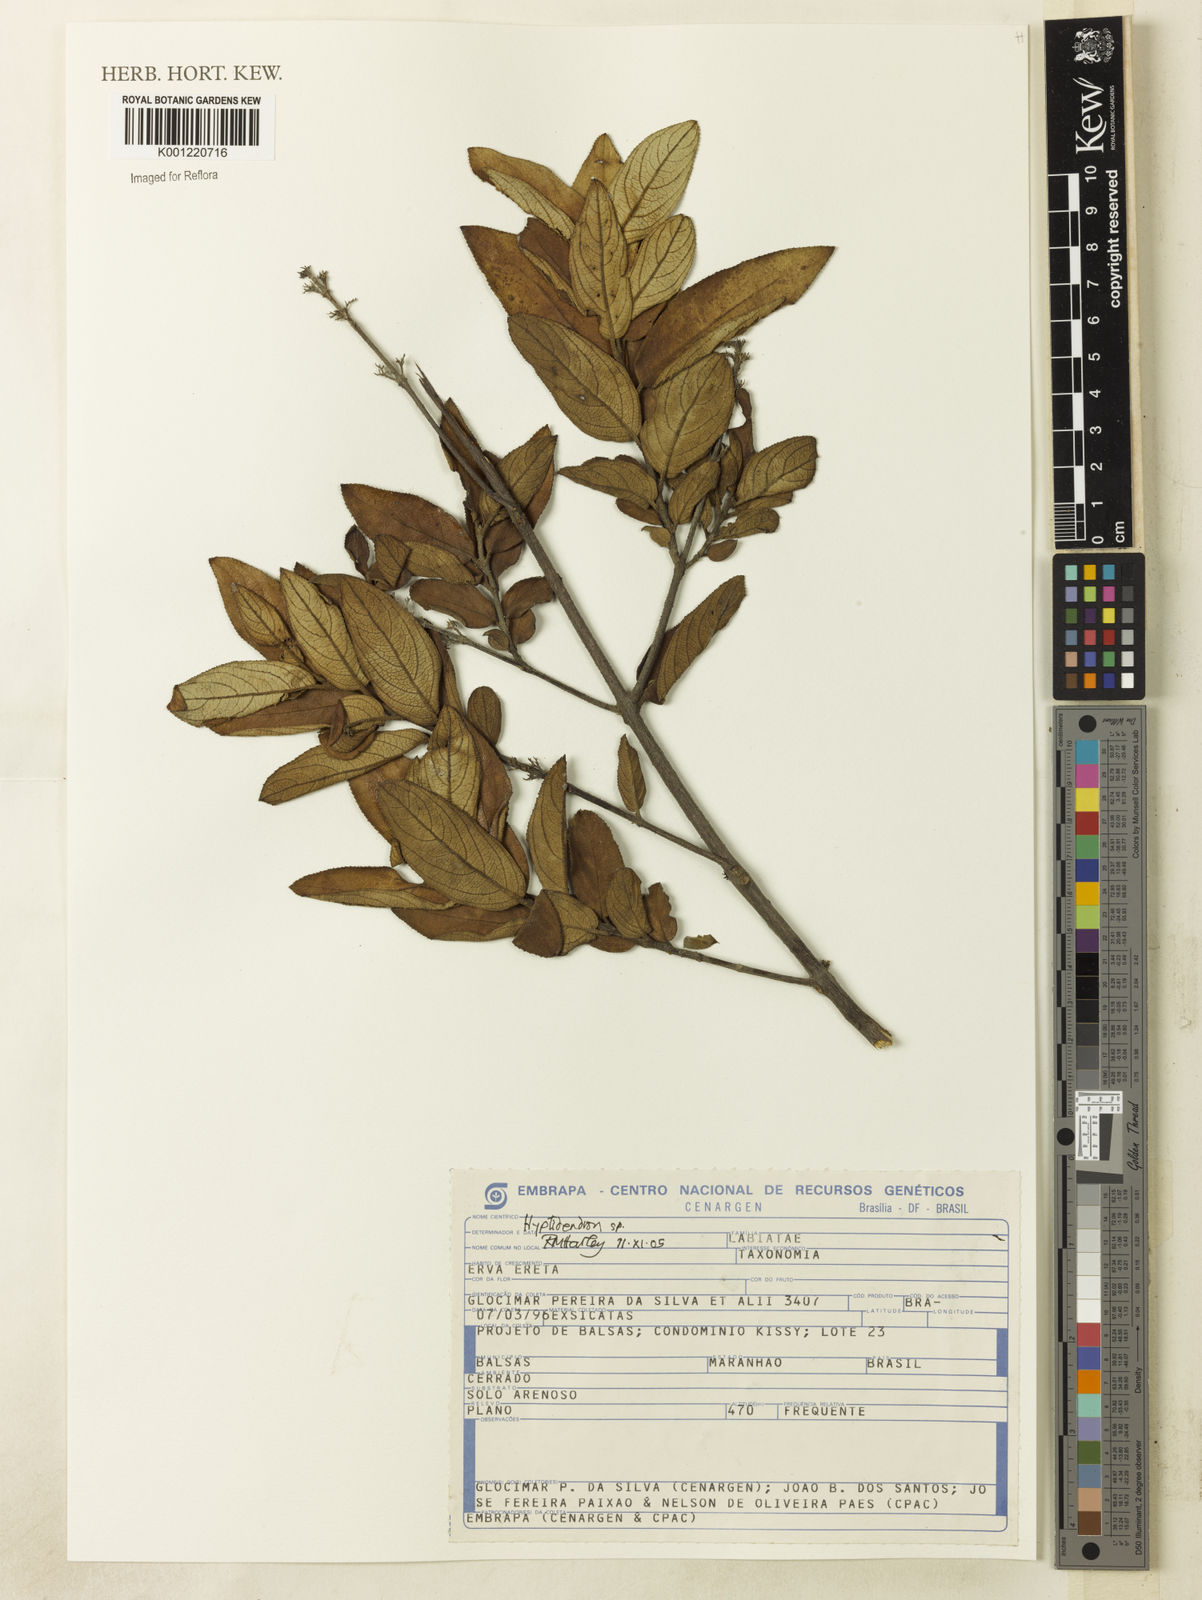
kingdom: Plantae
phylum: Tracheophyta
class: Magnoliopsida
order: Lamiales
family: Lamiaceae
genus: Hyptidendron
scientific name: Hyptidendron conspersum
